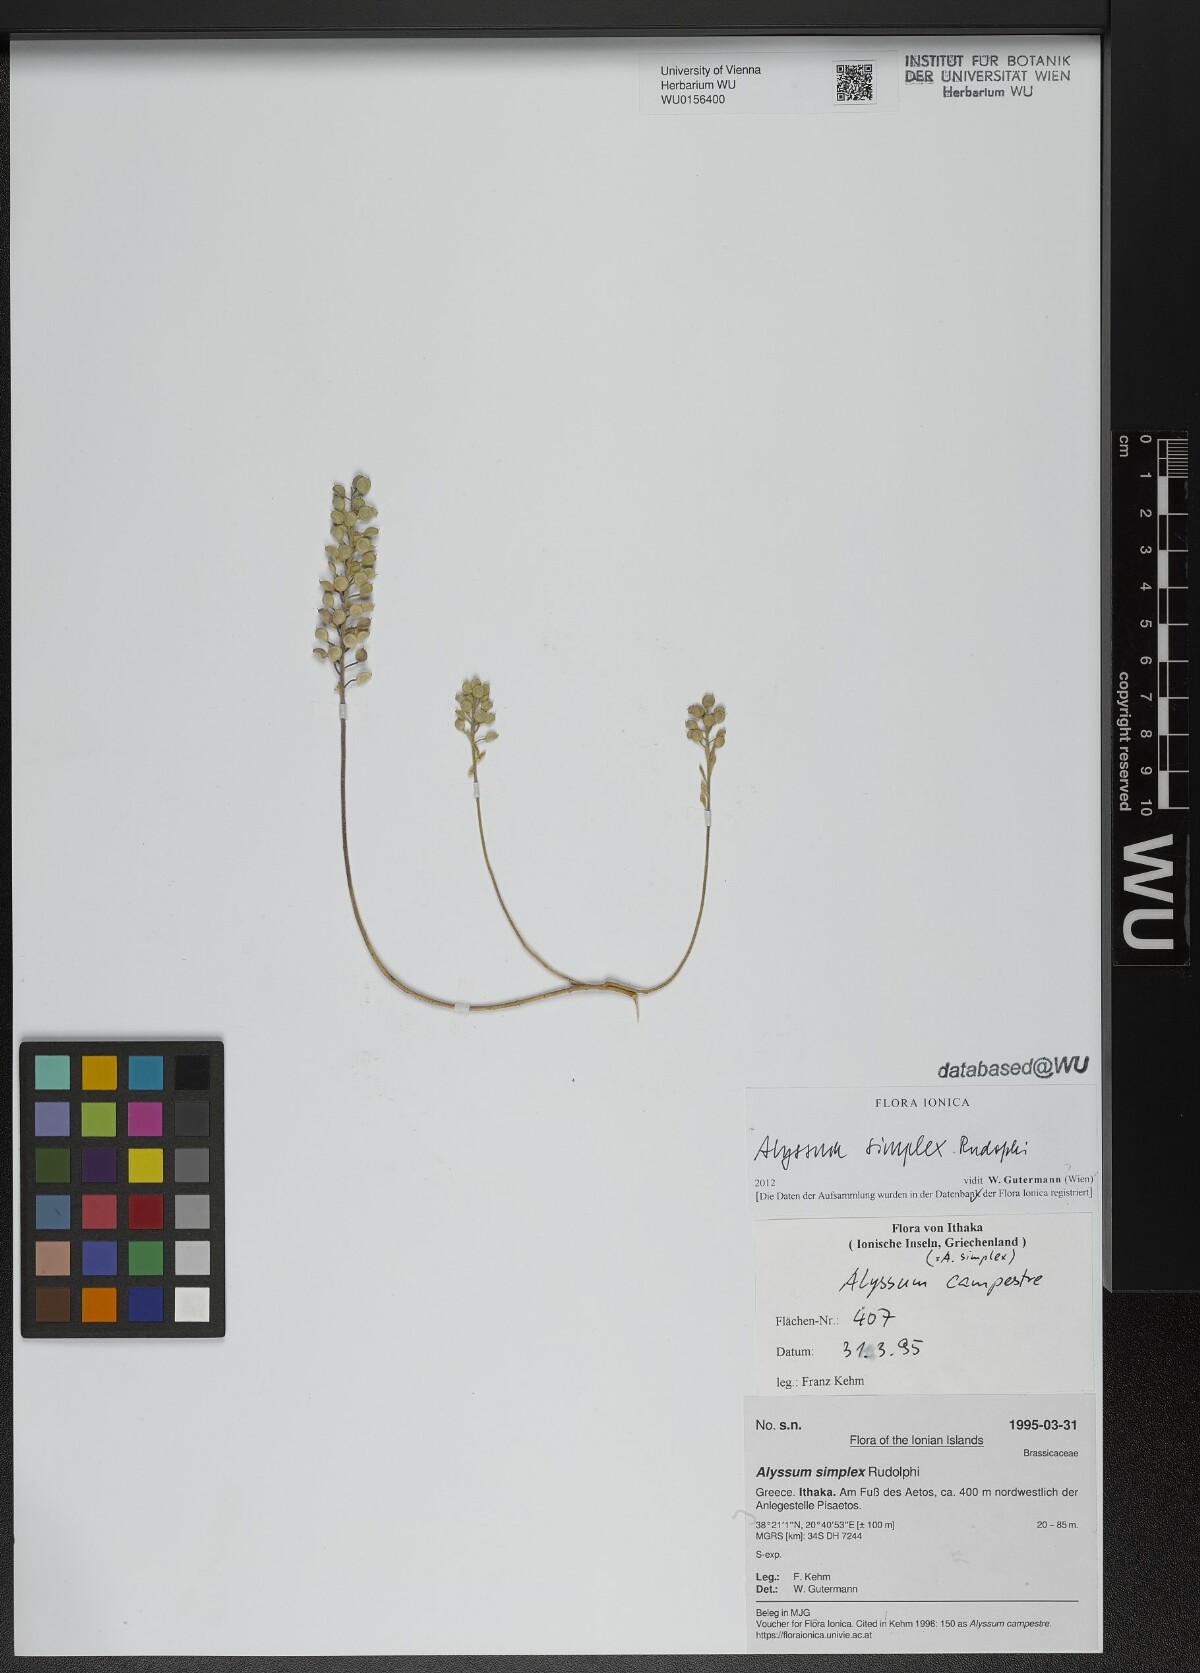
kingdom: Plantae
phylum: Tracheophyta
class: Magnoliopsida
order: Brassicales
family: Brassicaceae
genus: Alyssum
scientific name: Alyssum simplex
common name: Alyssum
